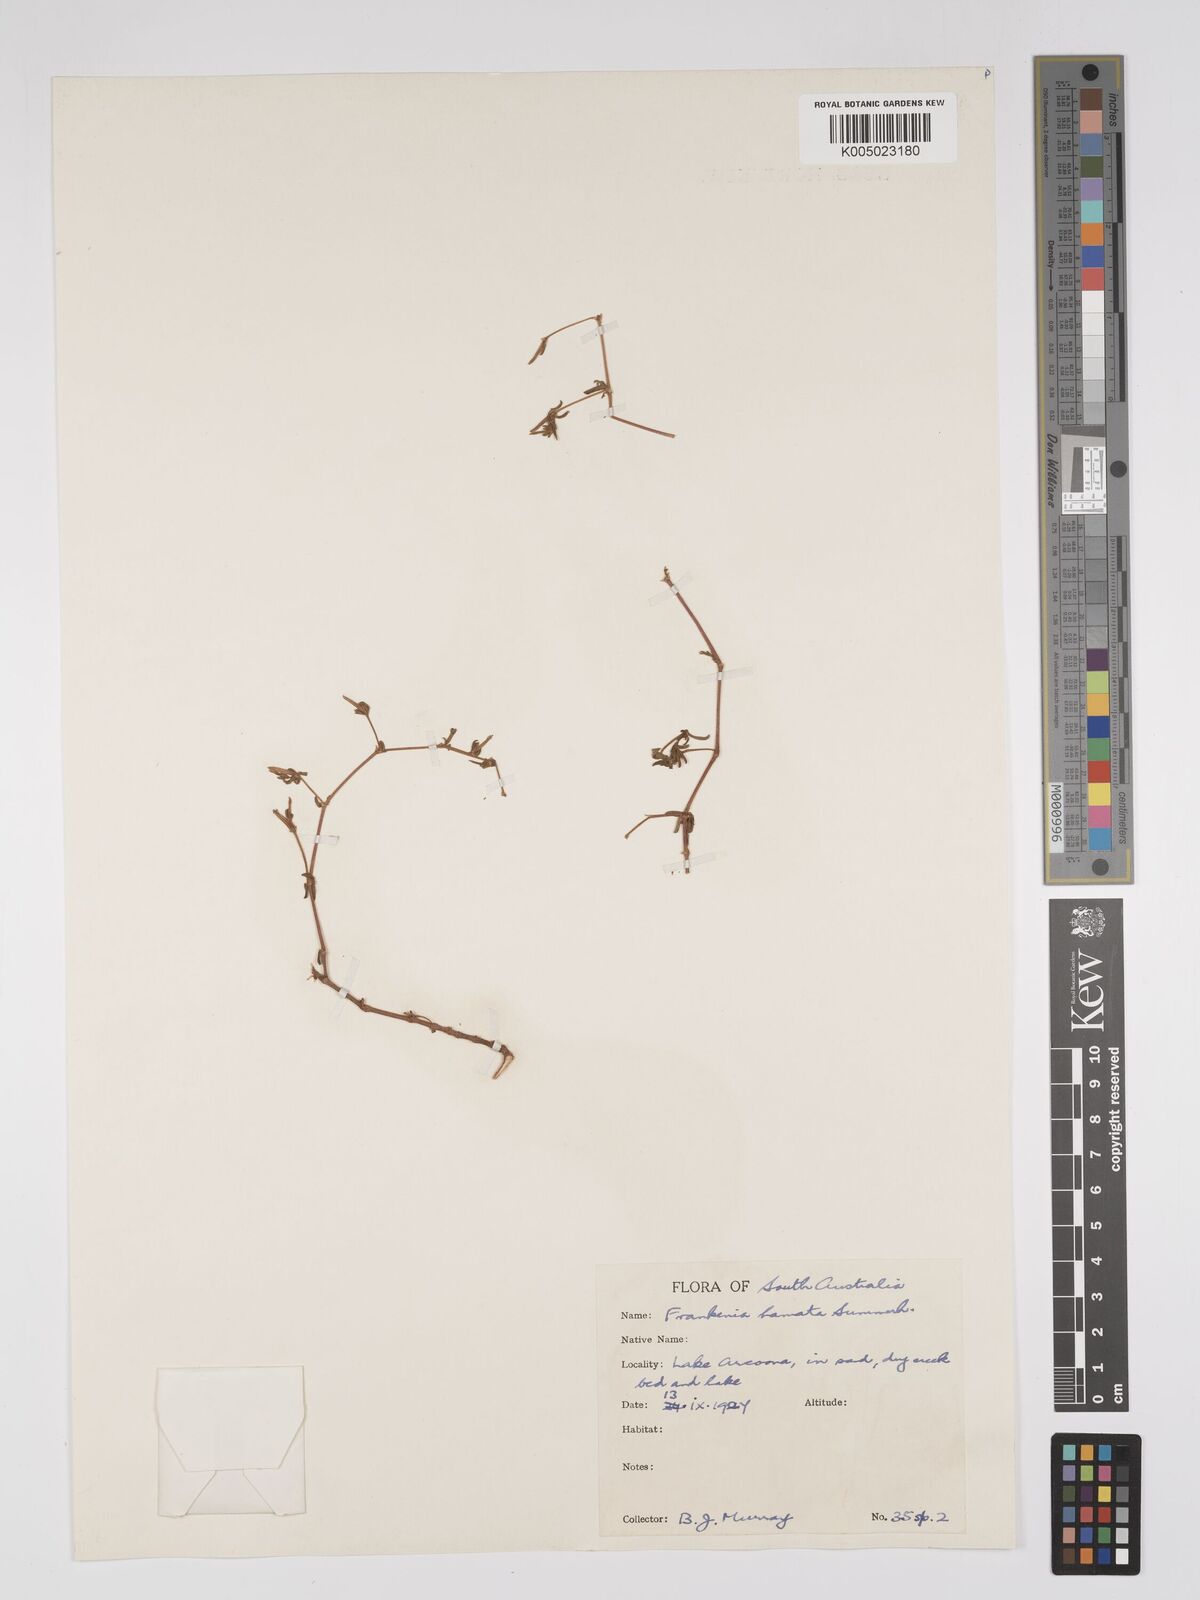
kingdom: Plantae
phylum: Tracheophyta
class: Magnoliopsida
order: Caryophyllales
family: Frankeniaceae
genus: Frankenia
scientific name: Frankenia uncinata
